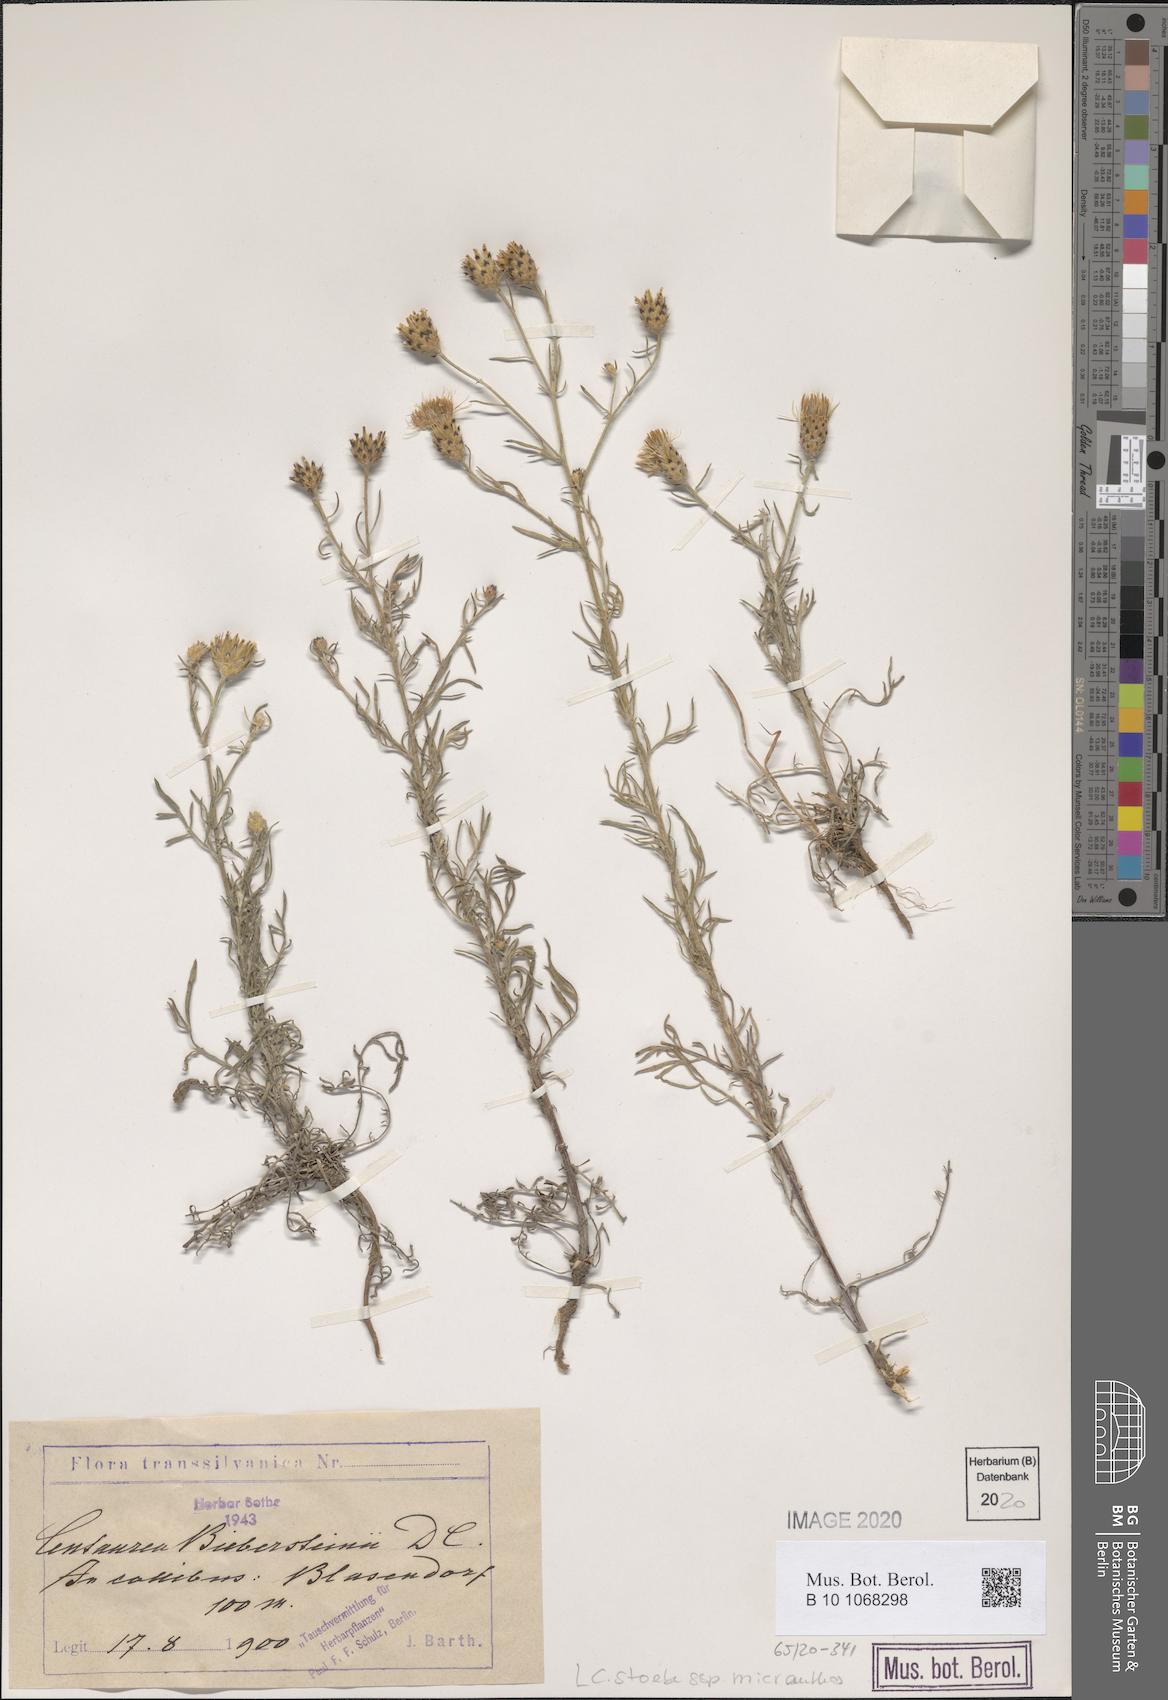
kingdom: Plantae
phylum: Tracheophyta
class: Magnoliopsida
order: Asterales
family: Asteraceae
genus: Centaurea
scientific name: Centaurea australis
